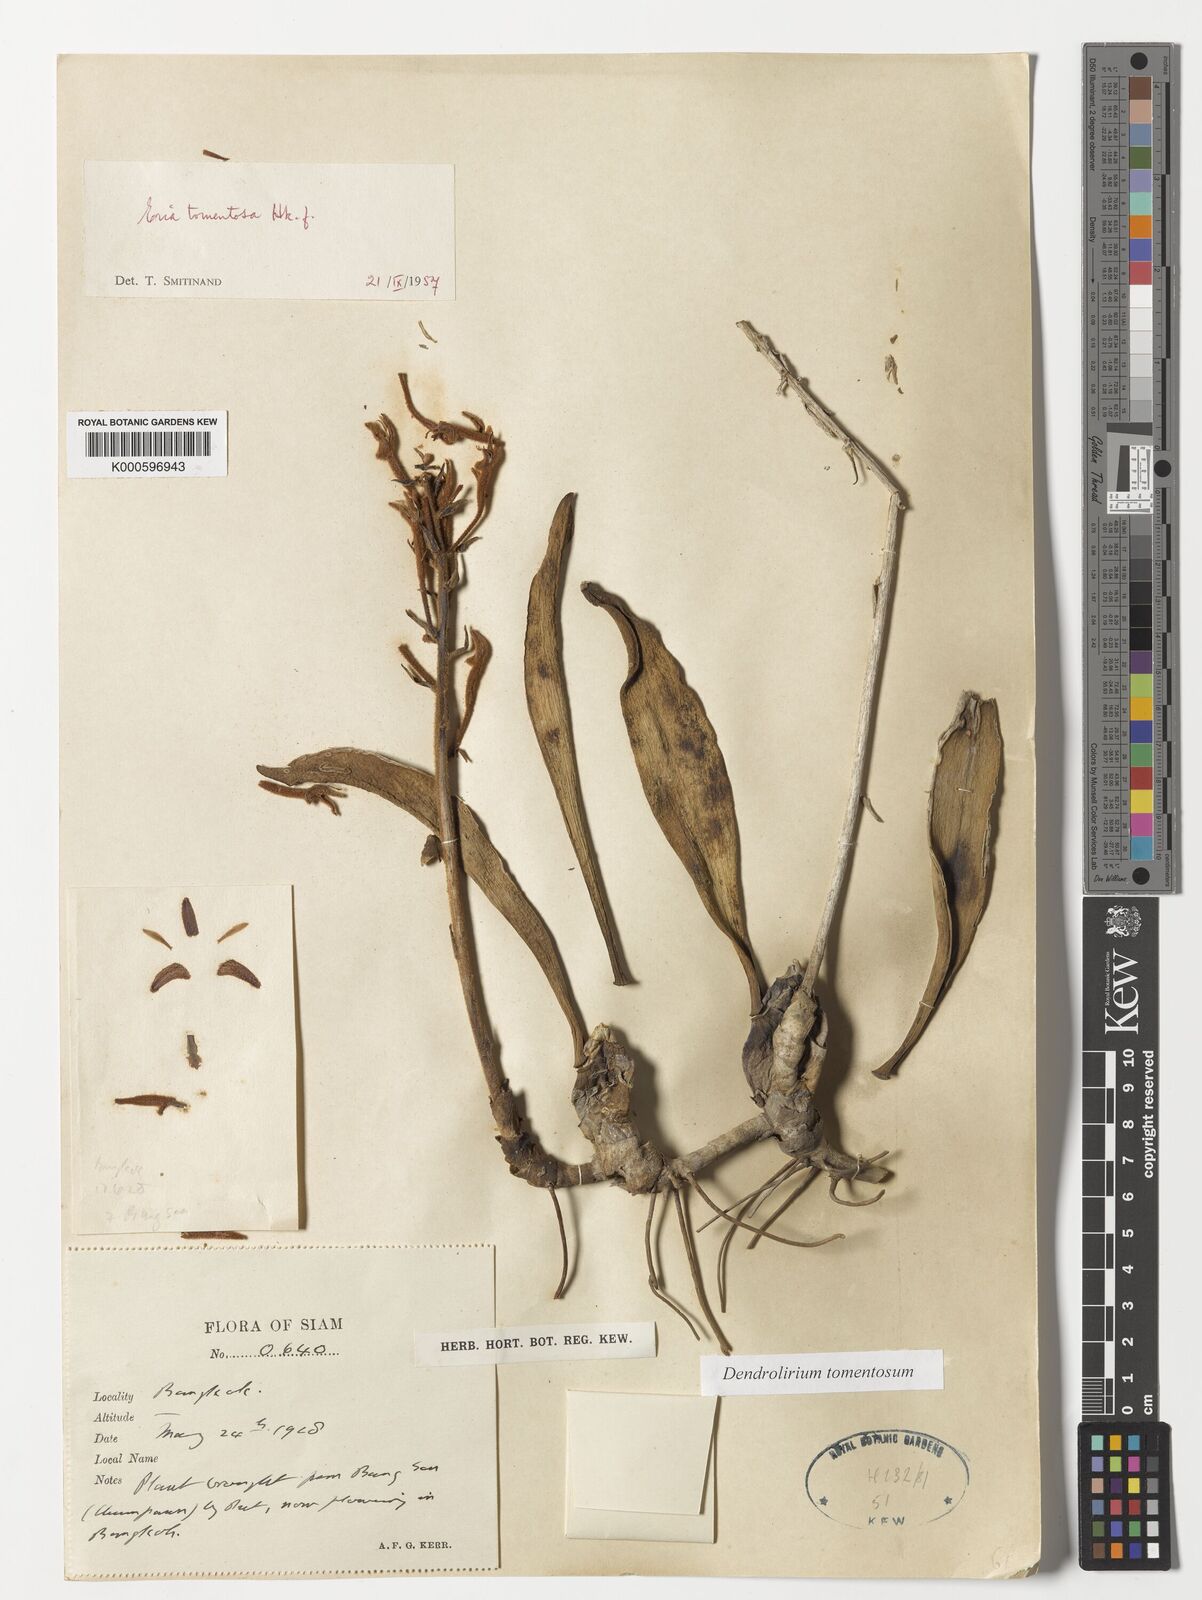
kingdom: Plantae
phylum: Tracheophyta
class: Liliopsida
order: Asparagales
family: Orchidaceae
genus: Dendrolirium
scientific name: Dendrolirium tomentosum
